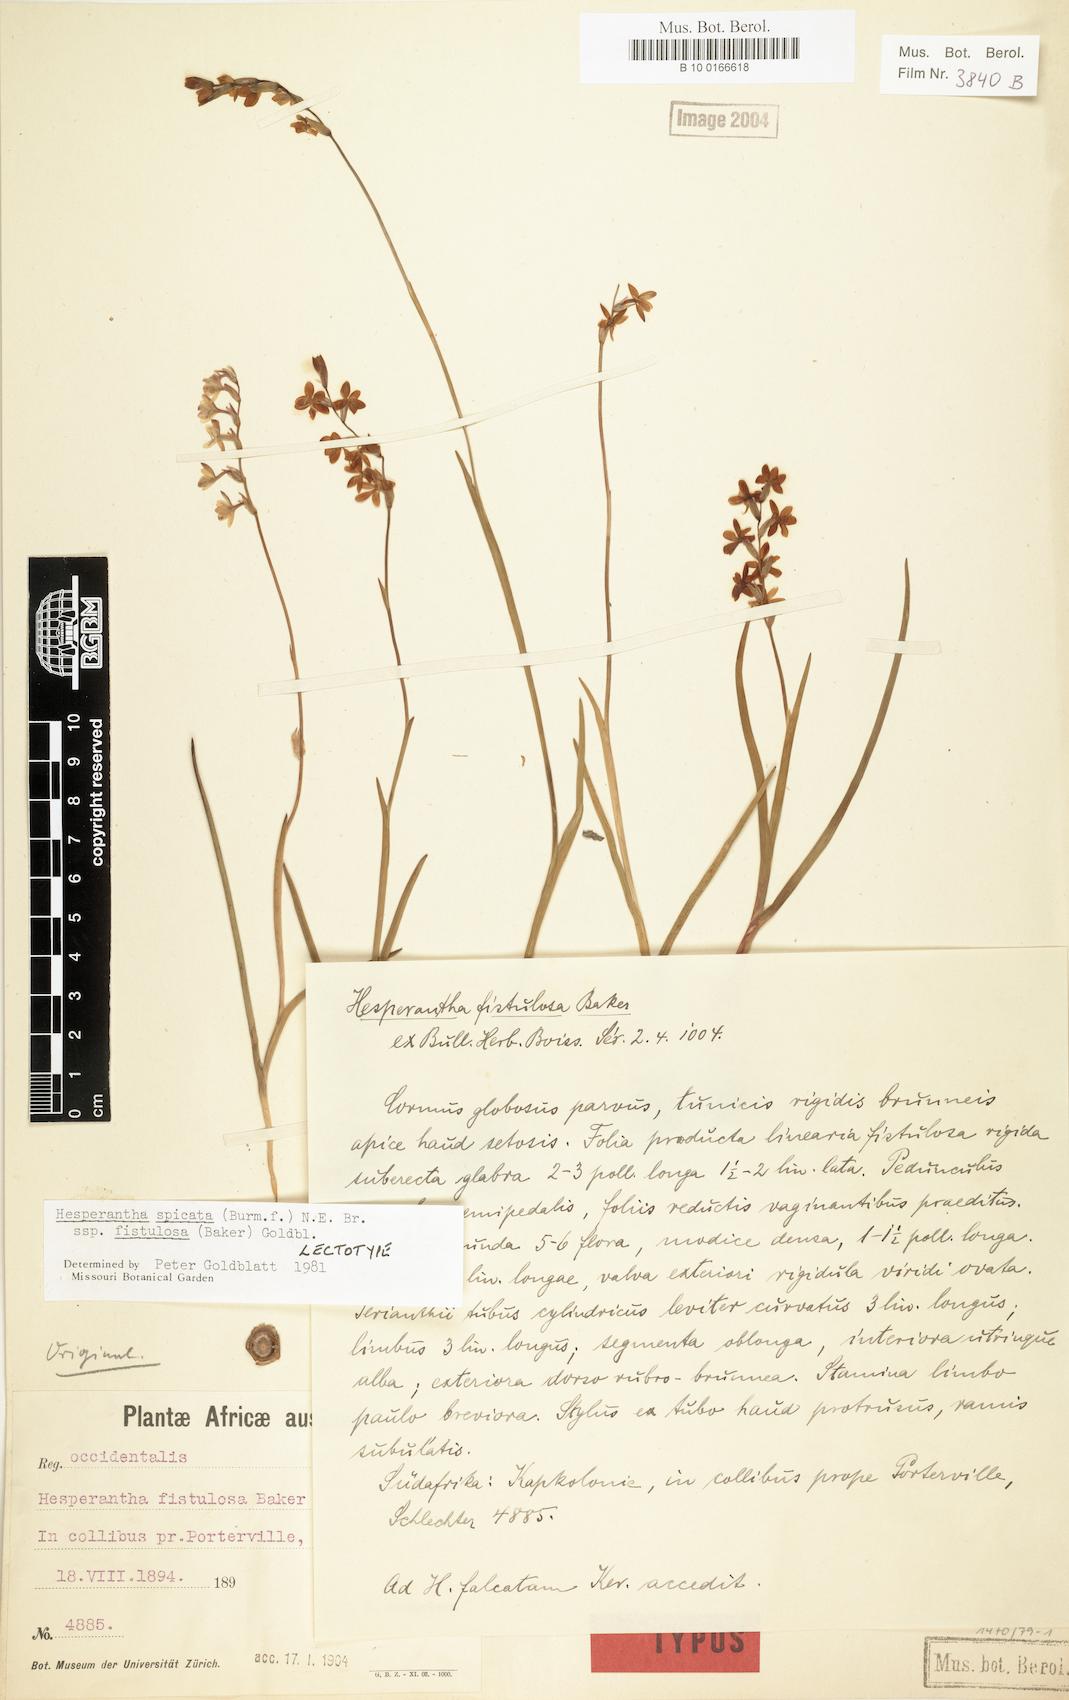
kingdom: Plantae
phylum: Tracheophyta
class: Liliopsida
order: Asparagales
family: Iridaceae
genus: Hesperantha
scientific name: Hesperantha spicata
